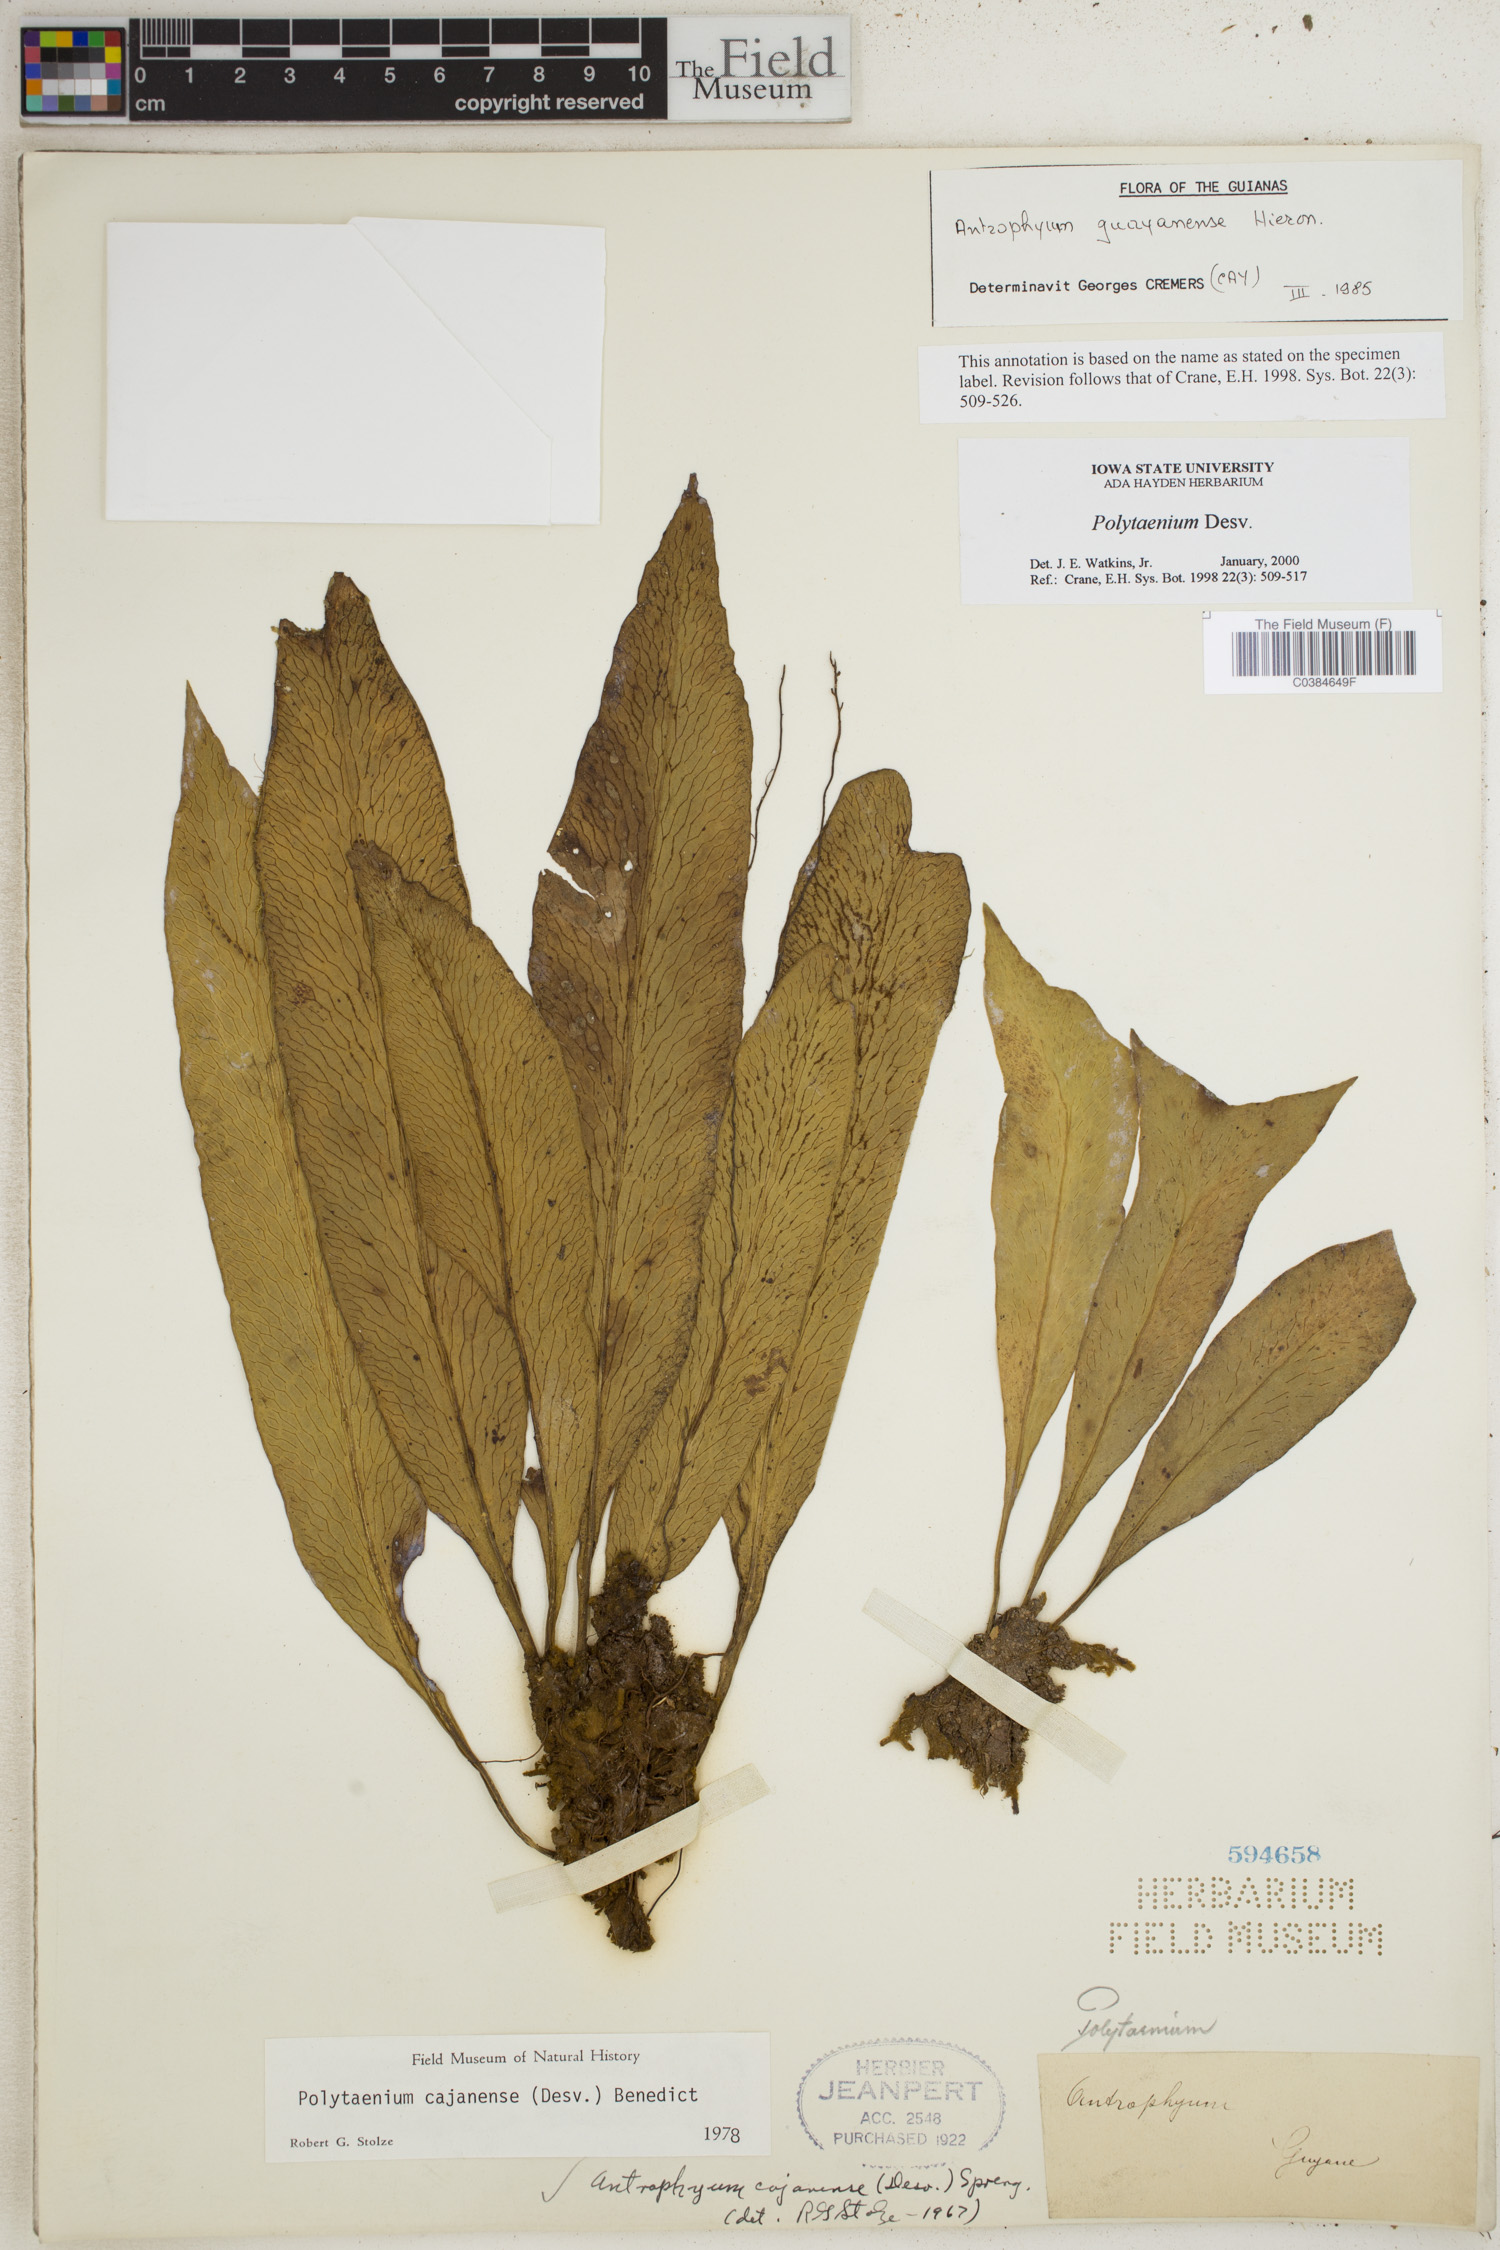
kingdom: Plantae
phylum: Tracheophyta
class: Polypodiopsida
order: Polypodiales
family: Pteridaceae
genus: Polytaenium
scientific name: Polytaenium
